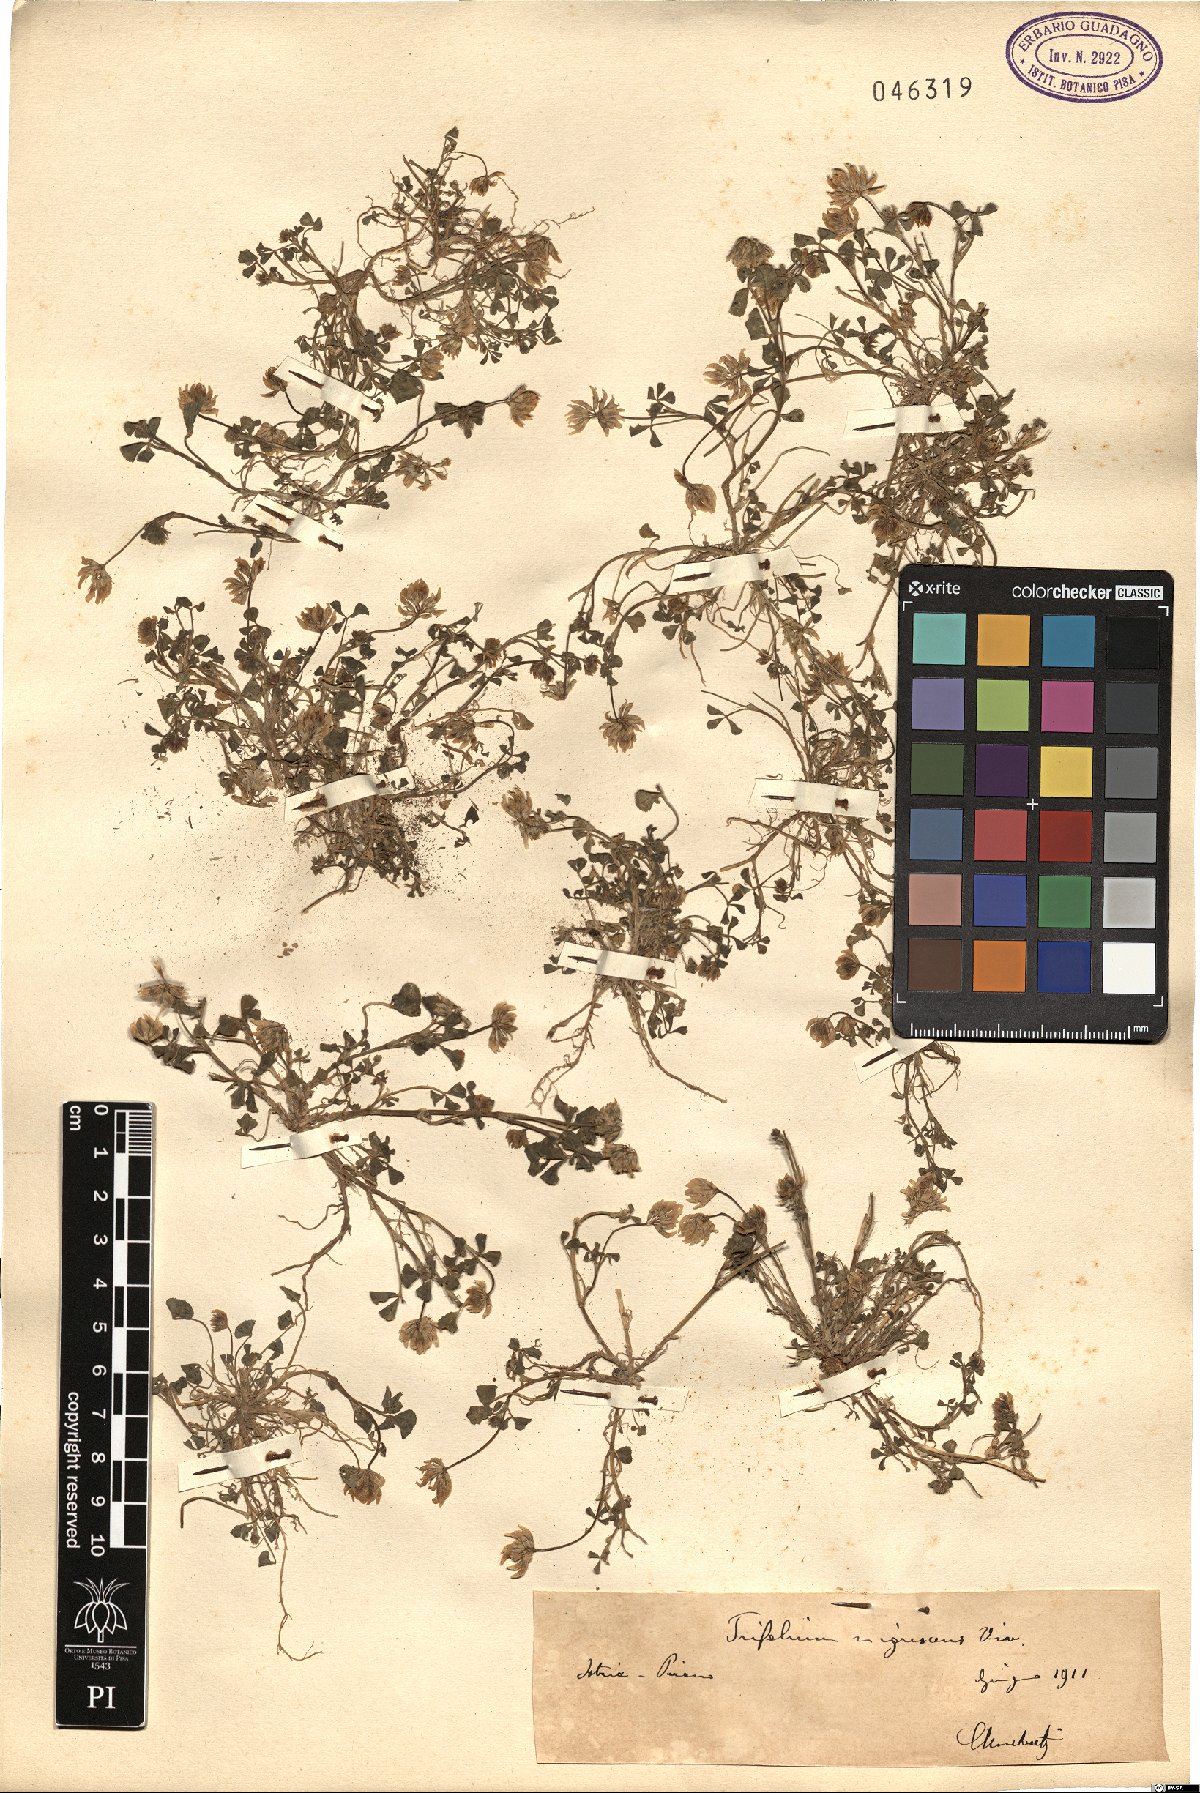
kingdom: Plantae
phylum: Tracheophyta
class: Magnoliopsida
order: Fabales
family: Fabaceae
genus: Trifolium
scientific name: Trifolium nigrescens
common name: Small white clover
